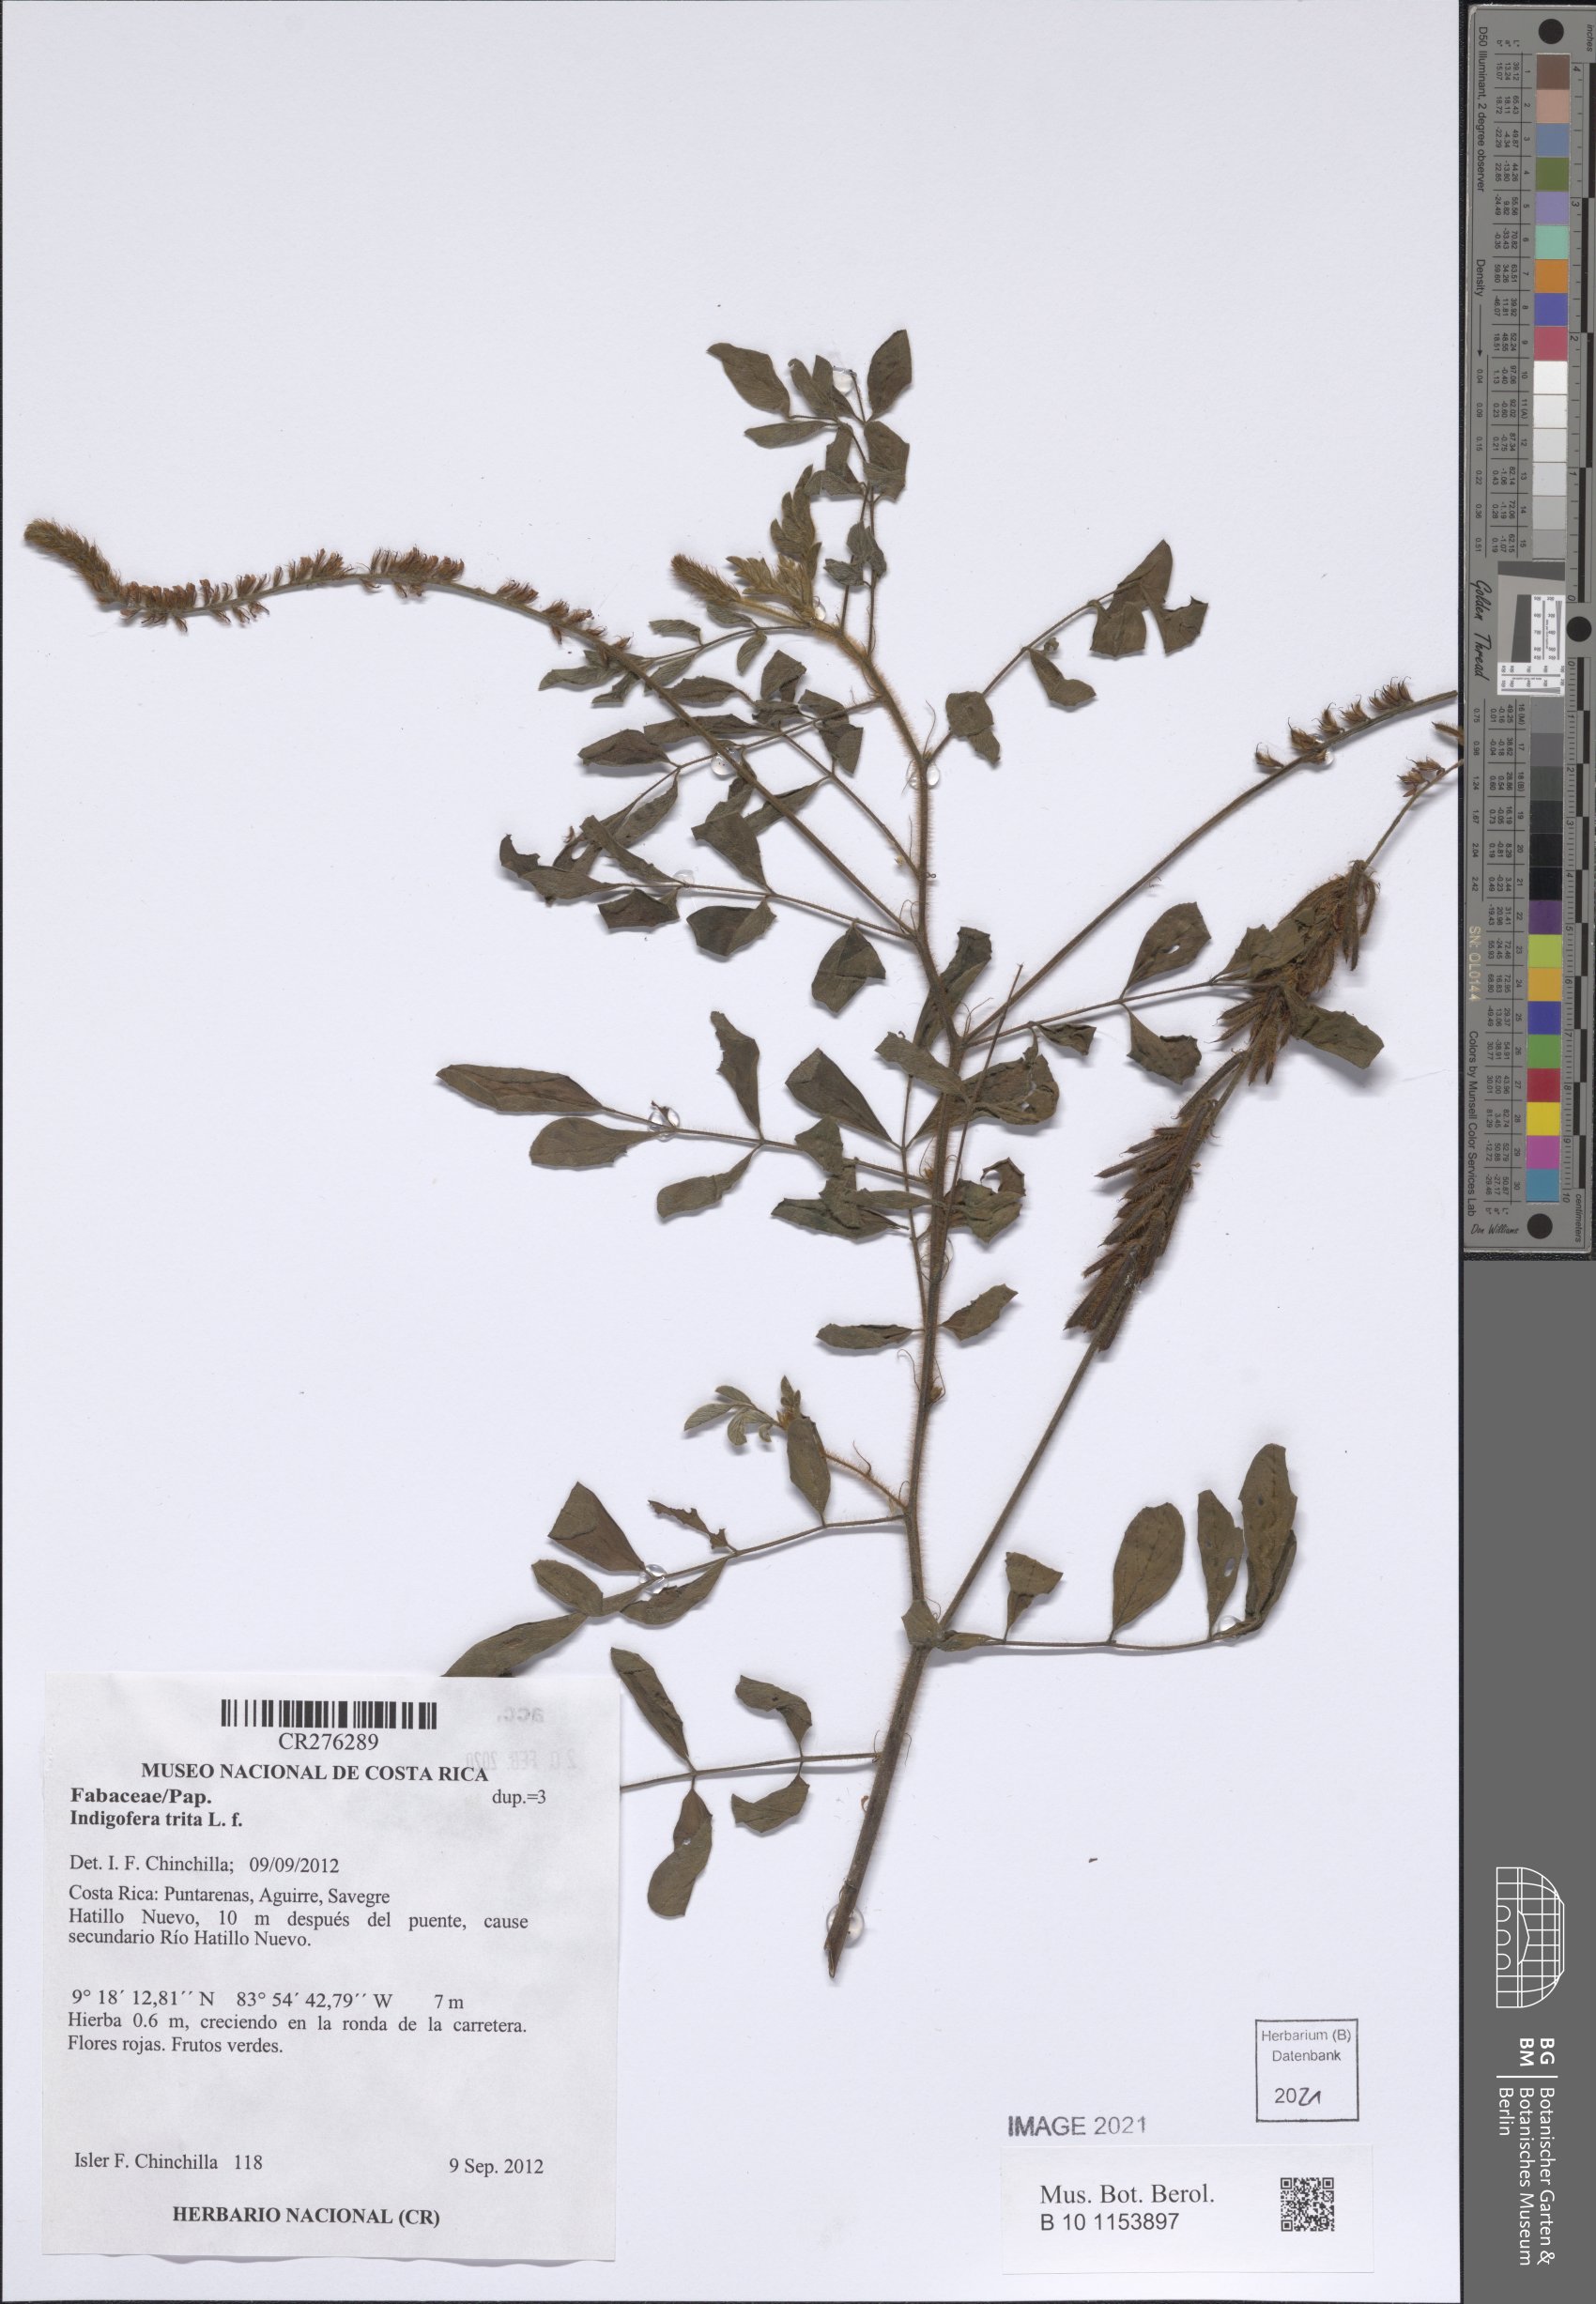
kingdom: Plantae
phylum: Tracheophyta
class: Magnoliopsida
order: Fabales
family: Fabaceae
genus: Indigofera
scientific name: Indigofera trita
